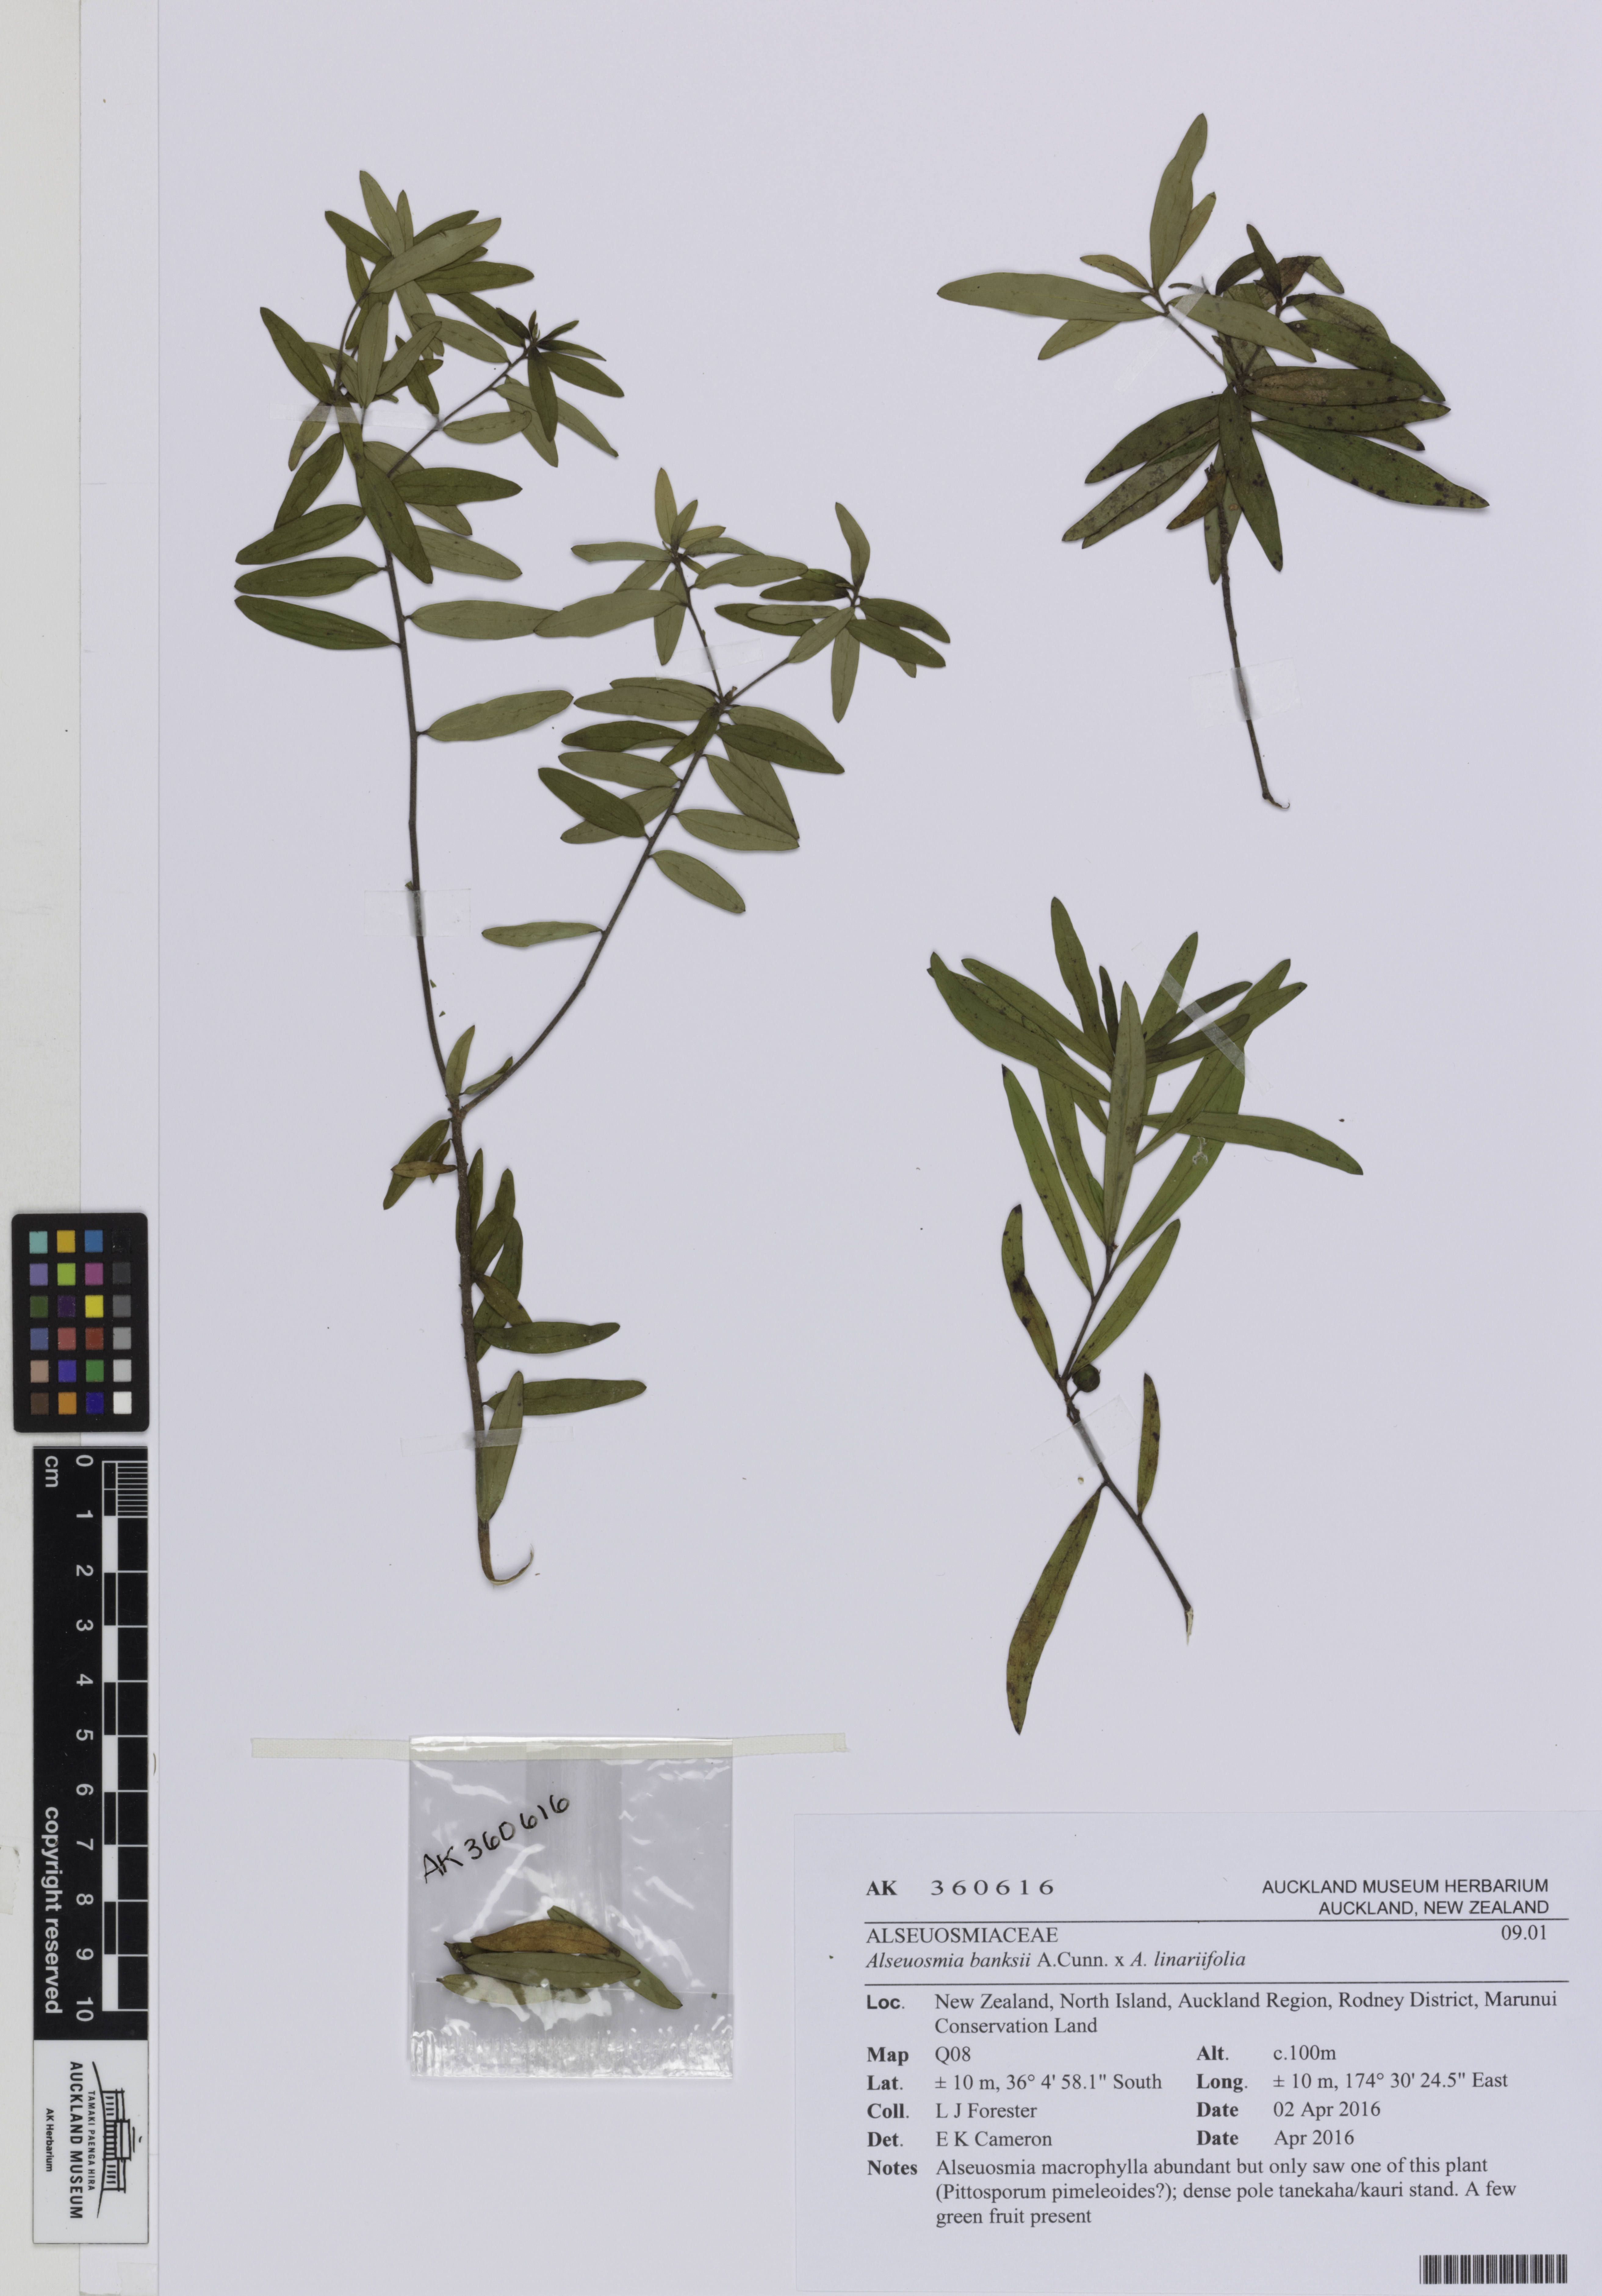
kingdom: Plantae
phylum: Tracheophyta
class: Magnoliopsida
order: Asterales
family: Alseuosmiaceae
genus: Alseuosmia
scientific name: Alseuosmia
